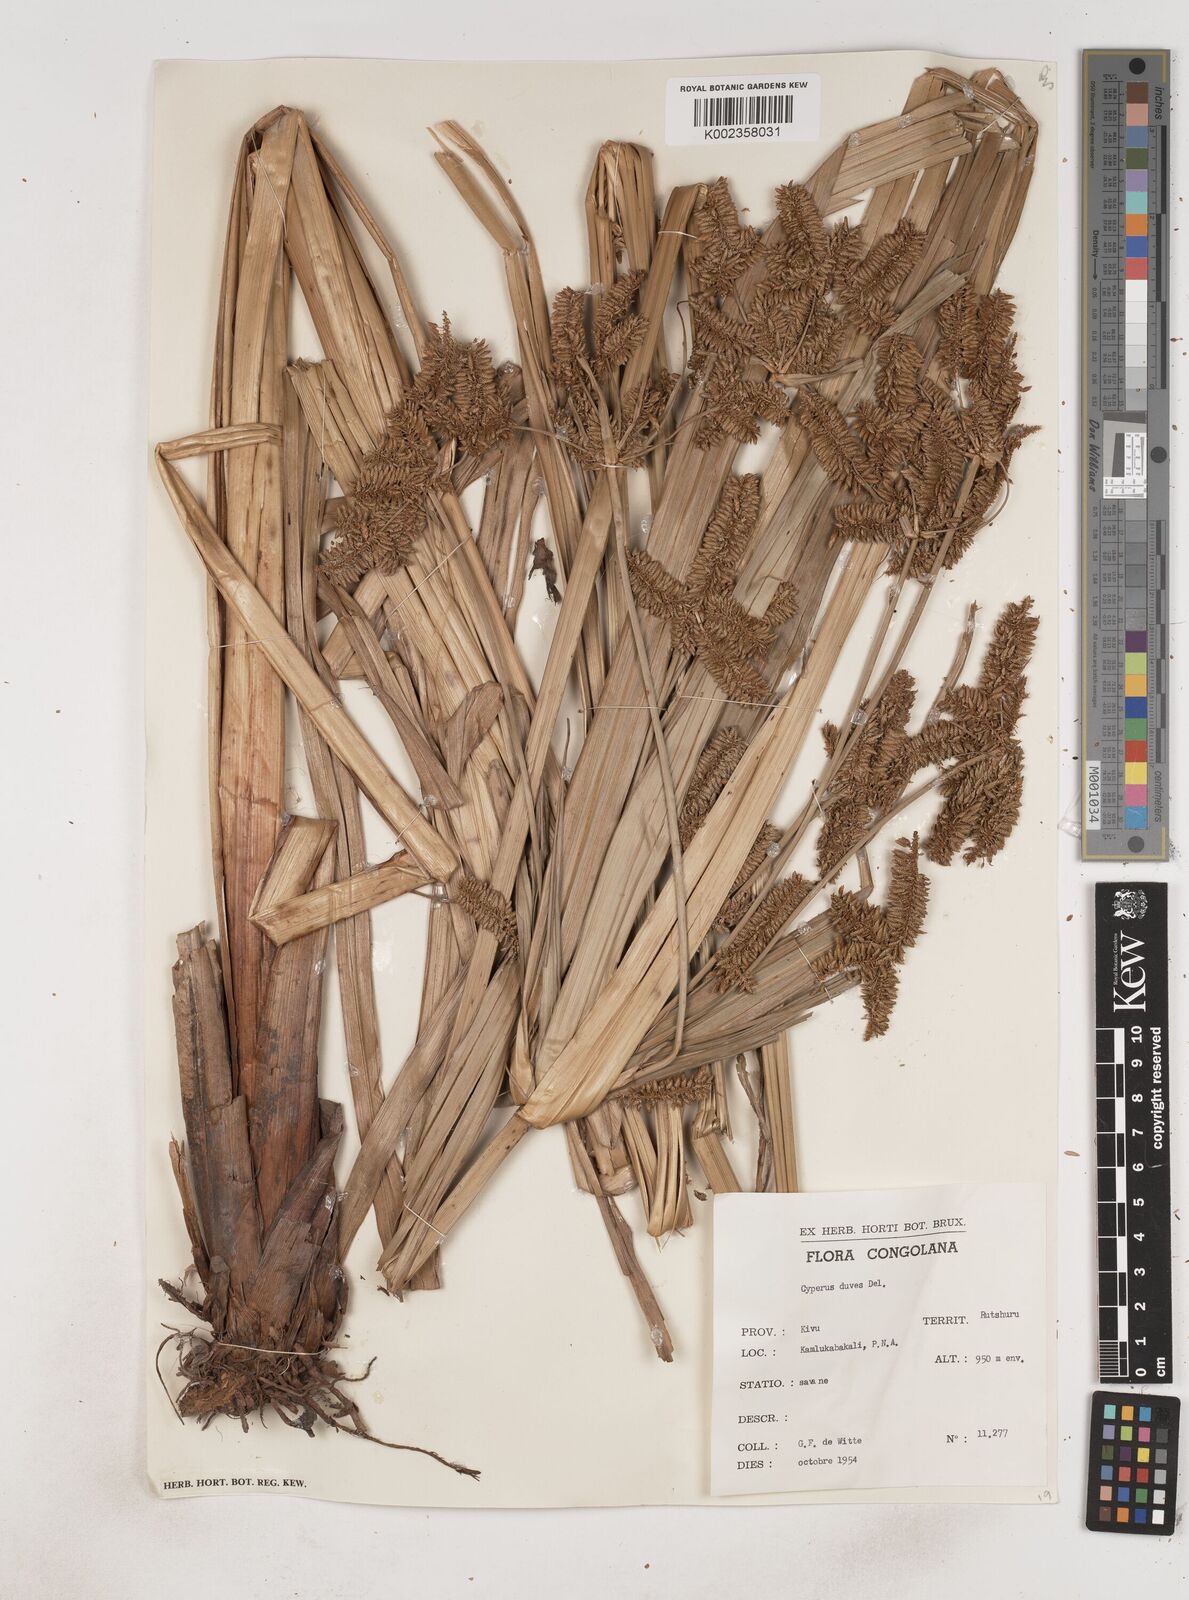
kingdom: Plantae
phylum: Tracheophyta
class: Liliopsida
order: Poales
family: Cyperaceae
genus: Cyperus
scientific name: Cyperus dives
